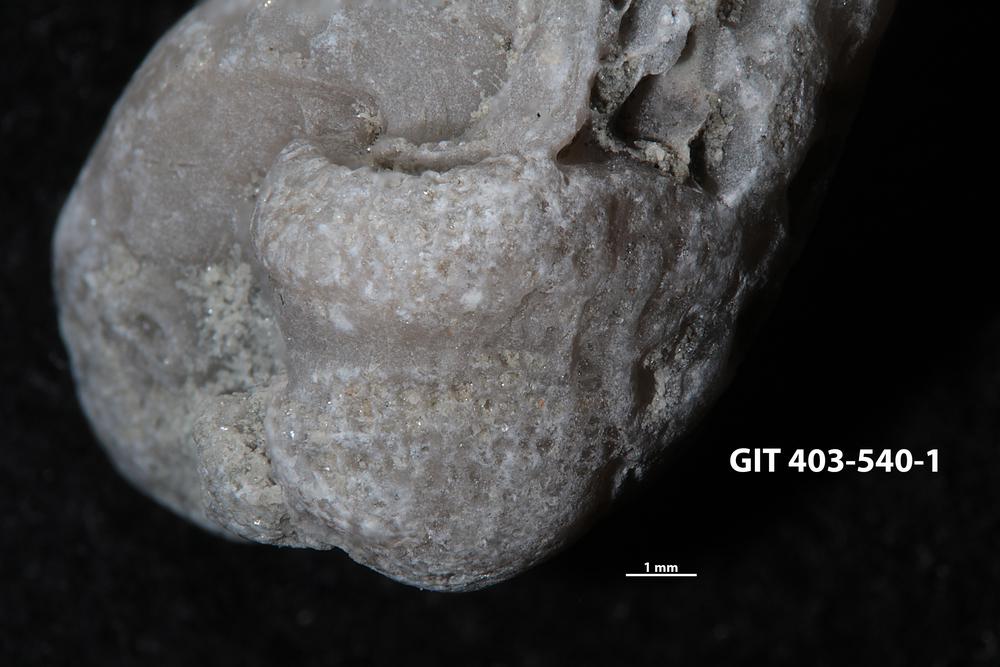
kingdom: Animalia
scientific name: Animalia
